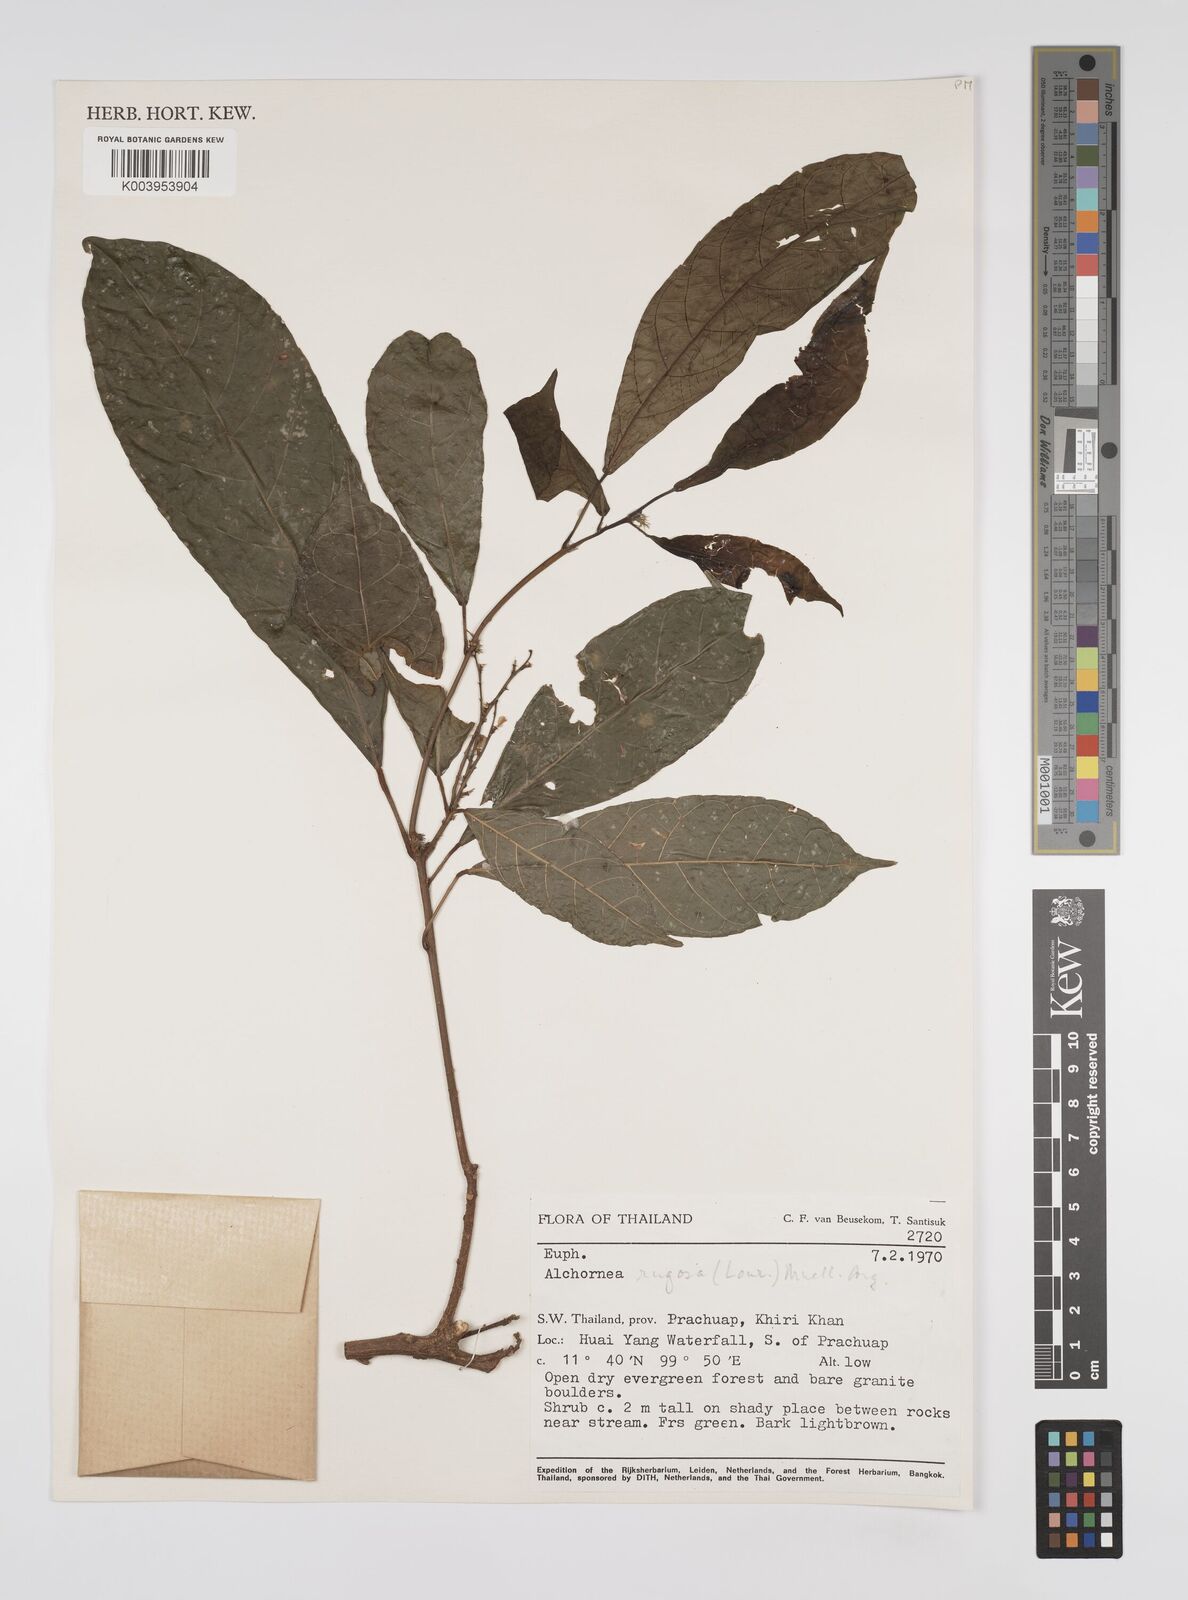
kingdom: Plantae
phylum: Tracheophyta
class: Magnoliopsida
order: Malpighiales
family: Euphorbiaceae
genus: Alchornea
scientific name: Alchornea rugosa
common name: Alchorntree
